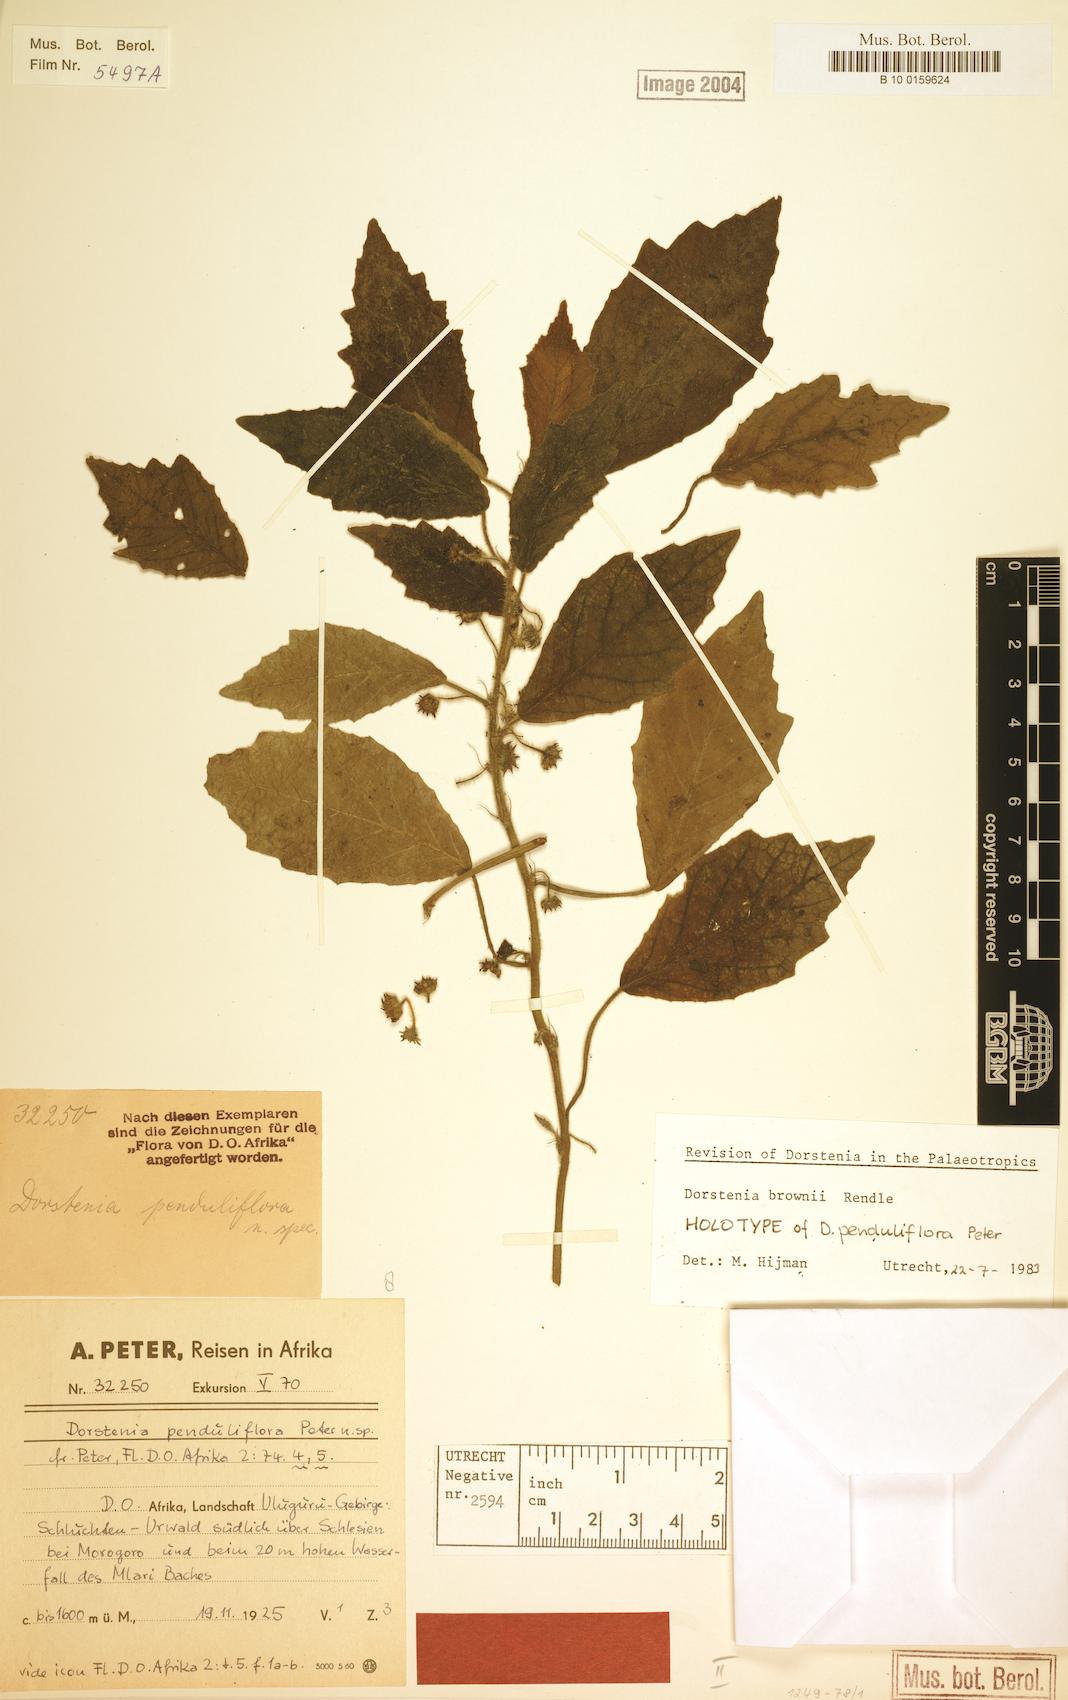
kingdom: Plantae
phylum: Tracheophyta
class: Magnoliopsida
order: Rosales
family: Moraceae
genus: Dorstenia
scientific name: Dorstenia brownii
